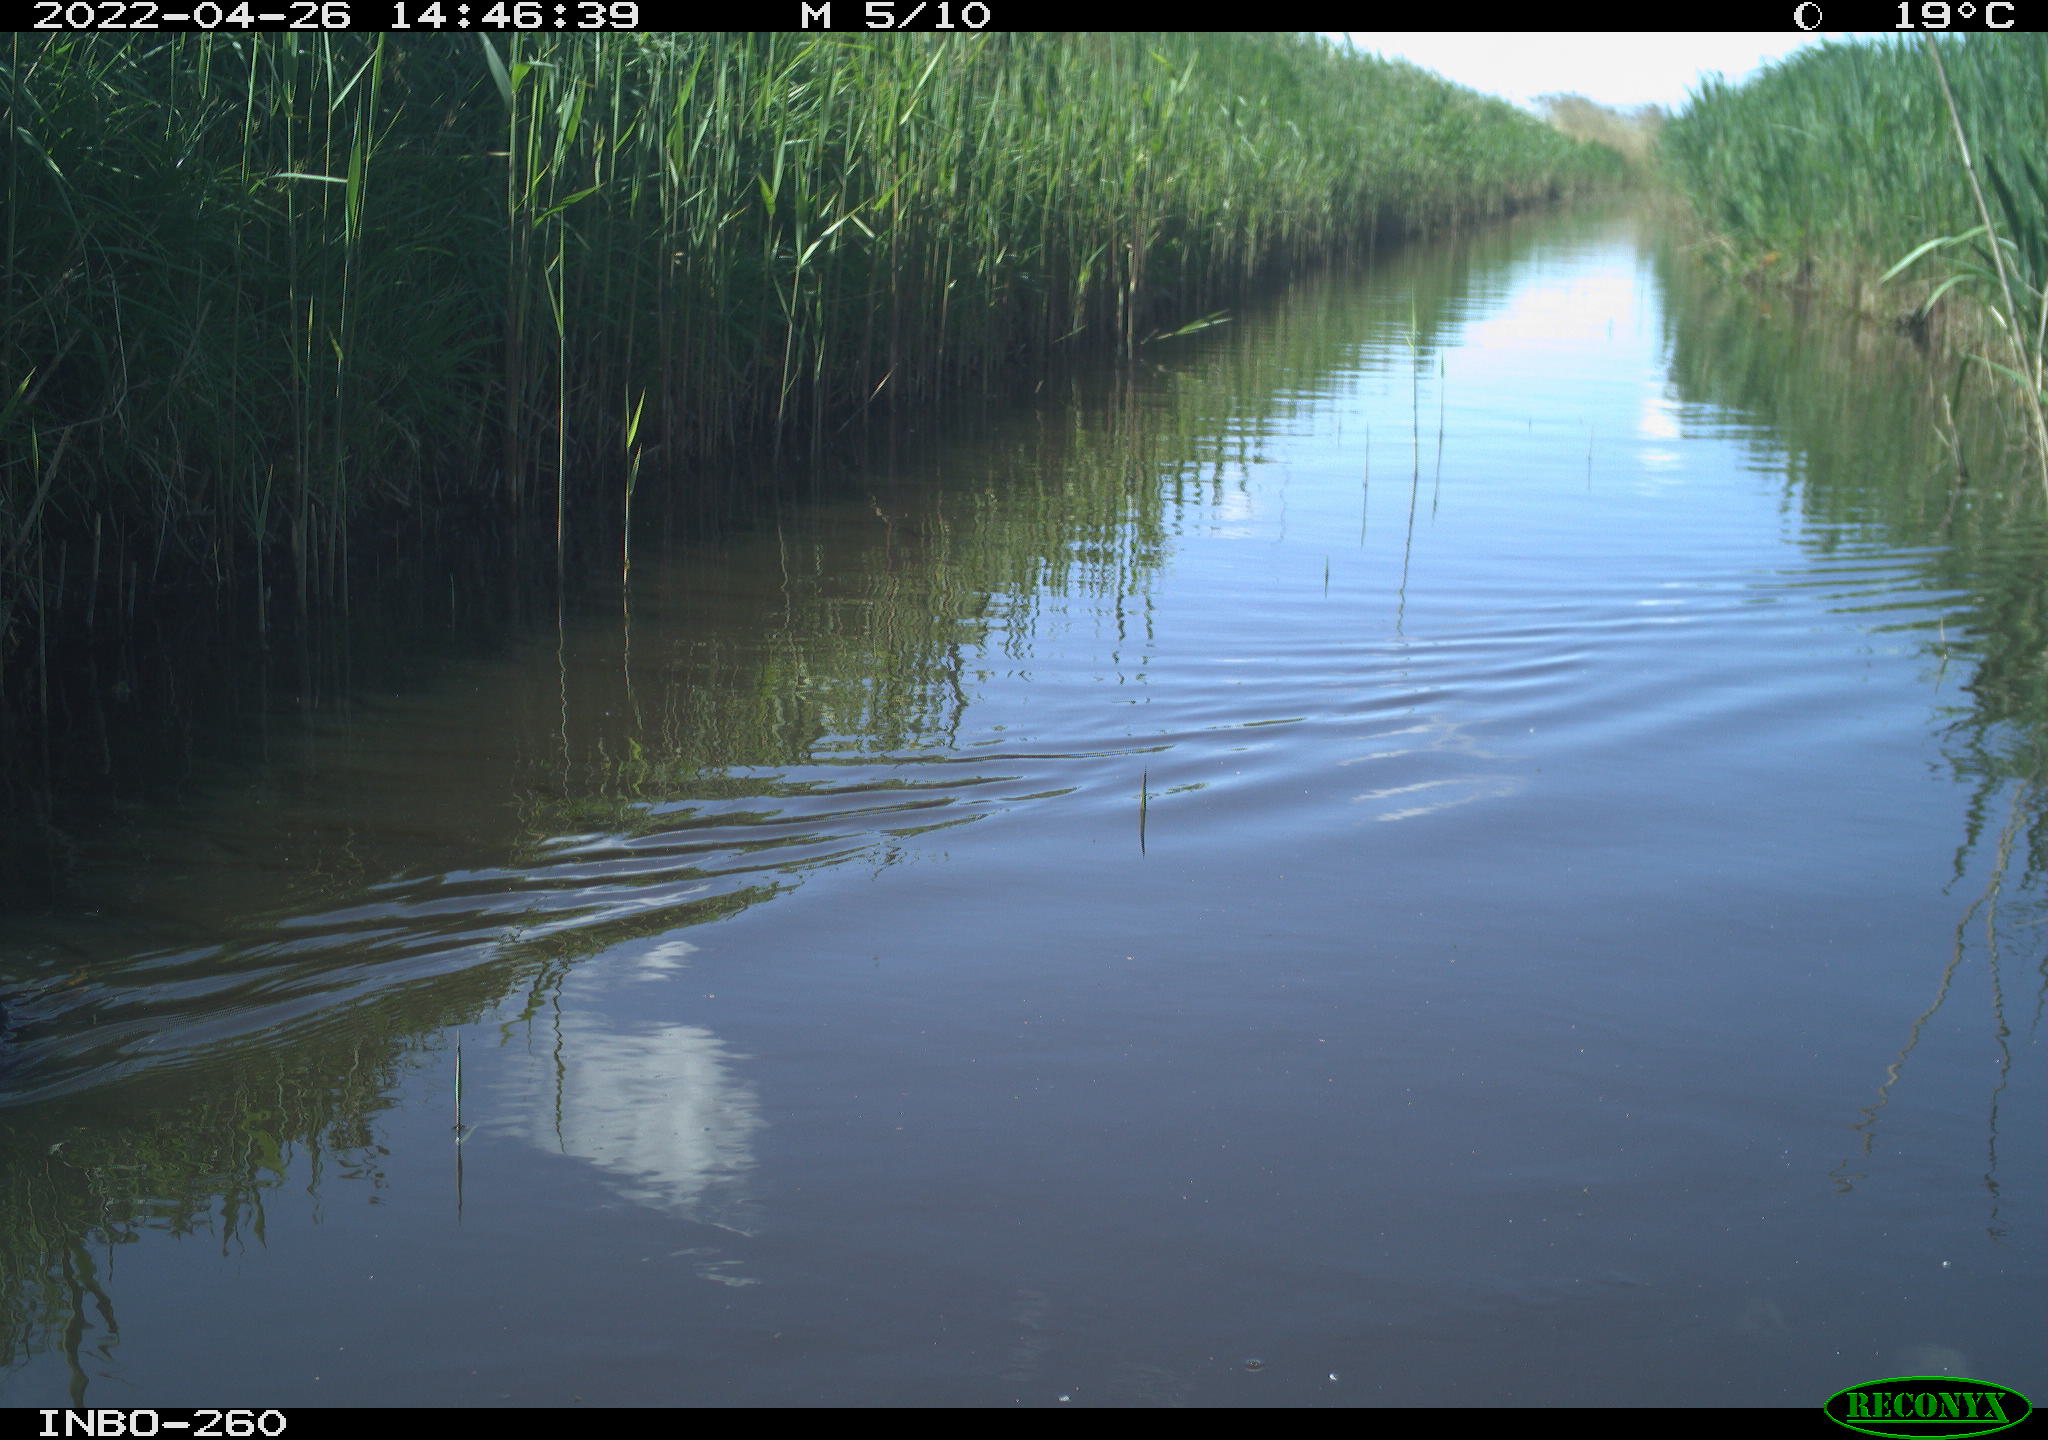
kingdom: Animalia
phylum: Chordata
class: Aves
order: Gruiformes
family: Rallidae
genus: Fulica
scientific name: Fulica atra
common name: Eurasian coot
